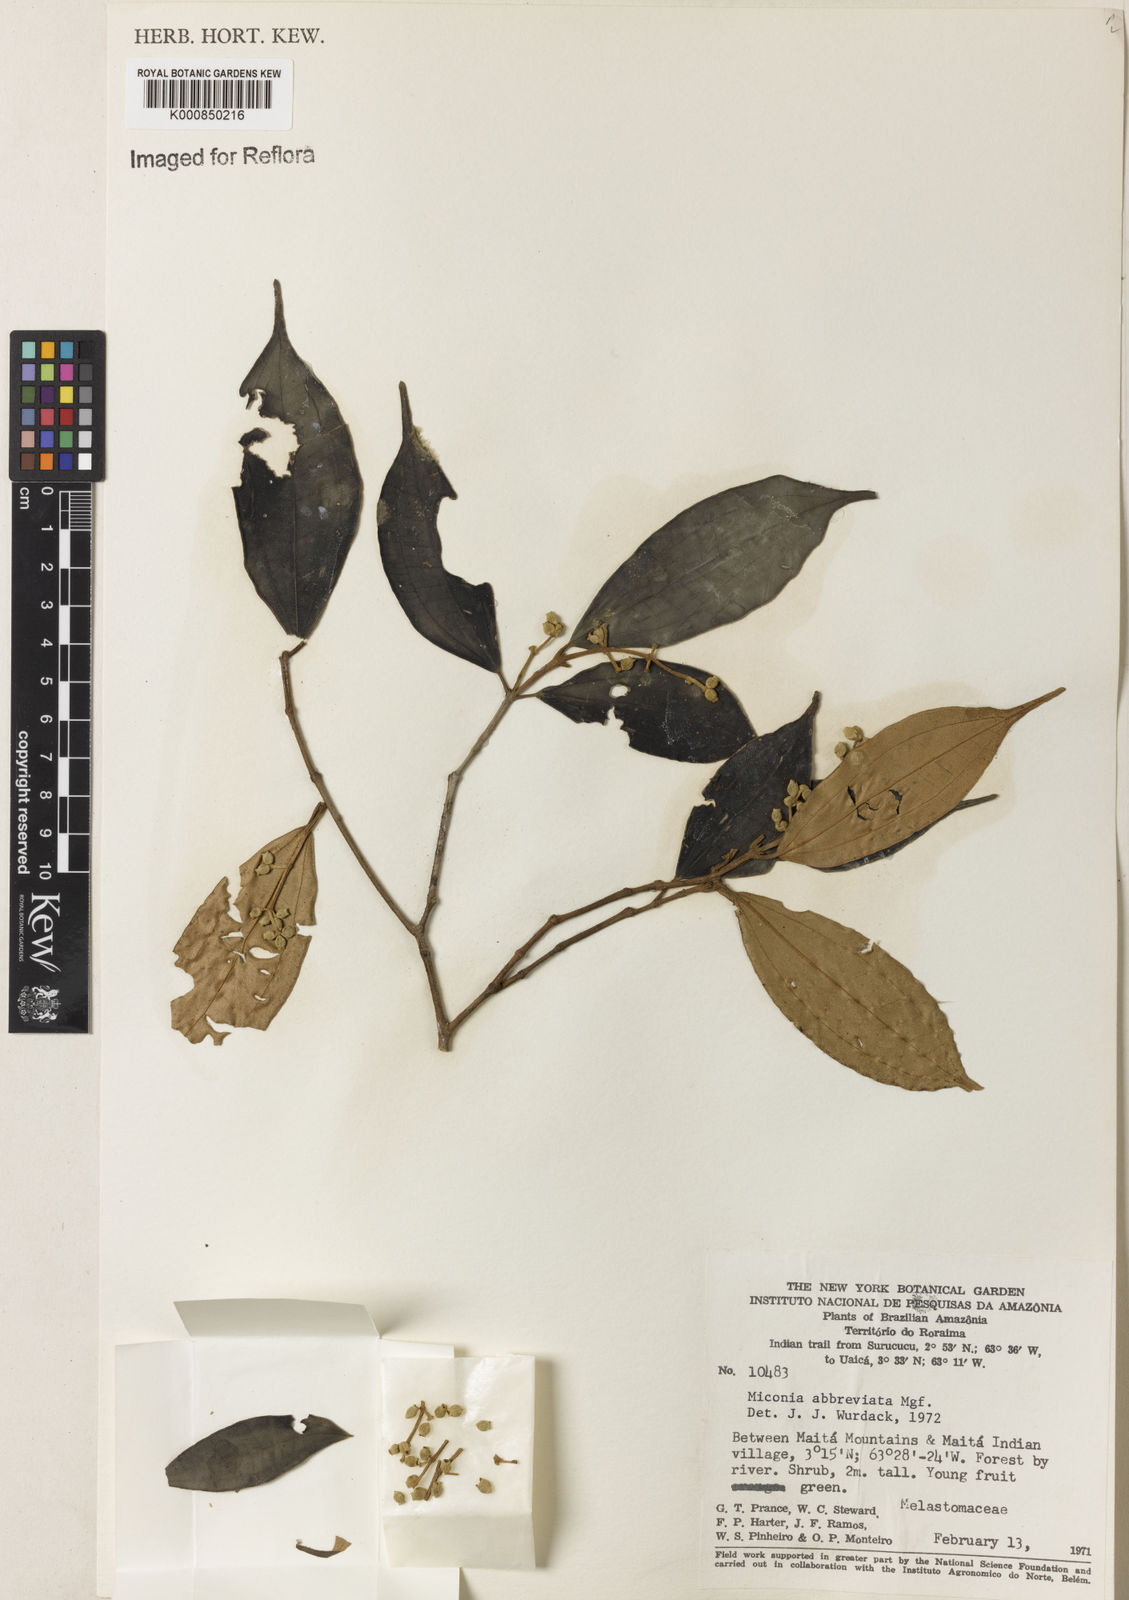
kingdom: Plantae
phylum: Tracheophyta
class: Magnoliopsida
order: Myrtales
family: Melastomataceae
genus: Miconia
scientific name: Miconia abbreviata
